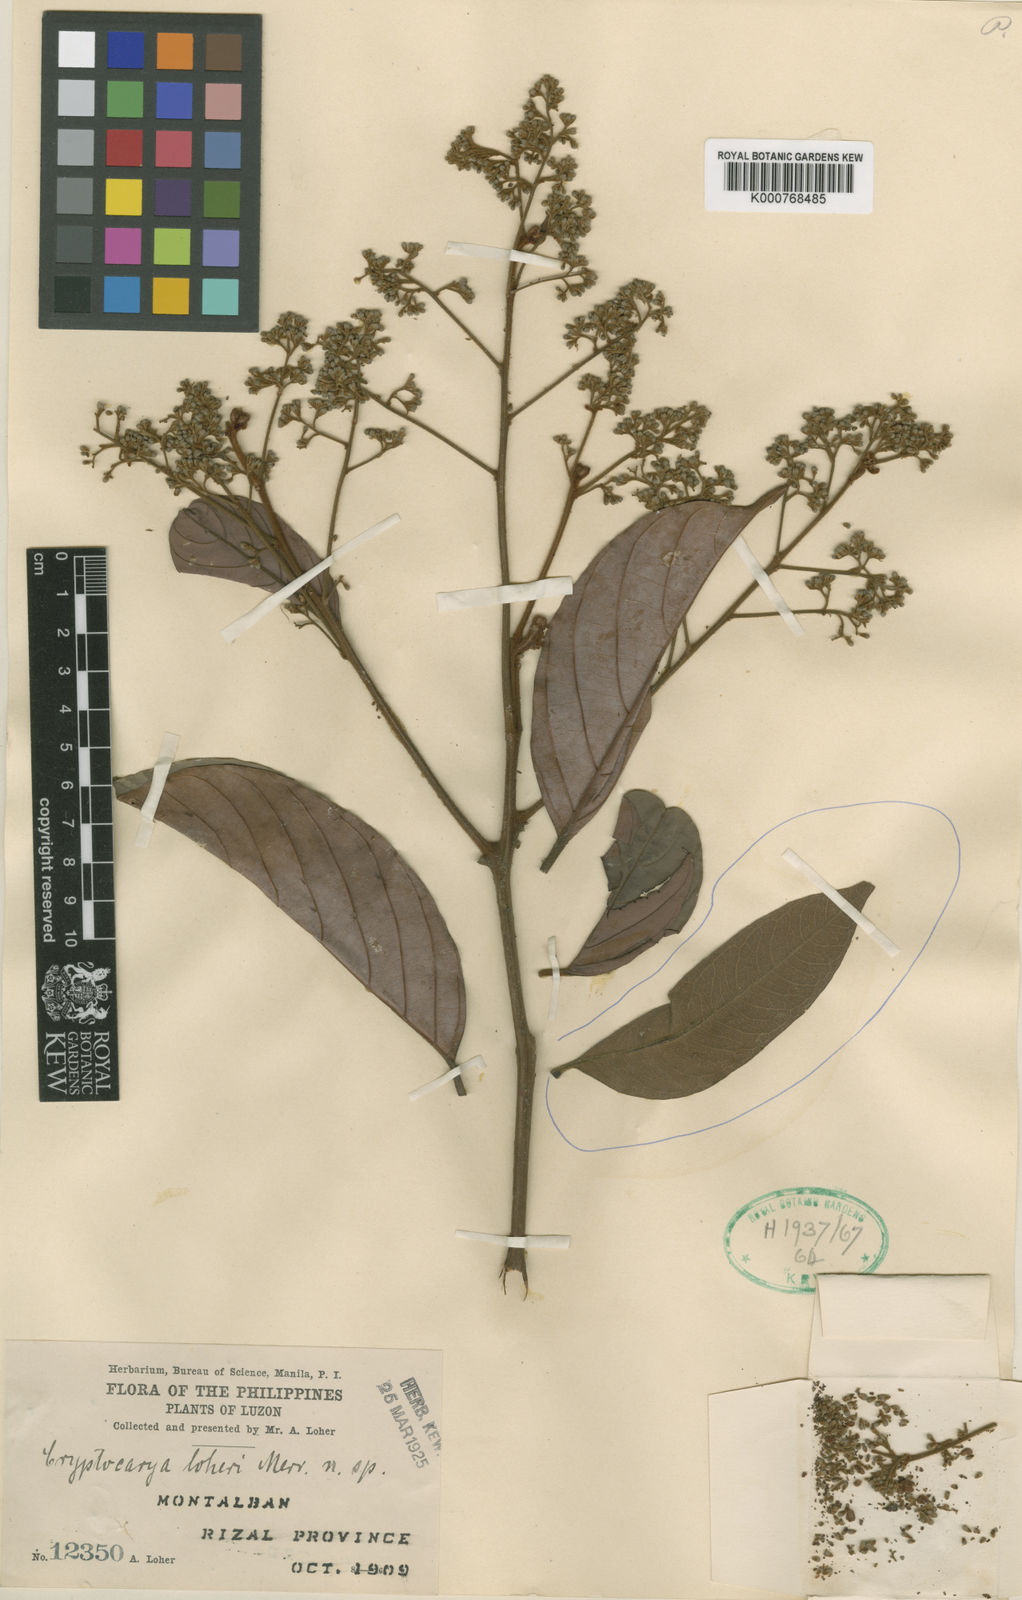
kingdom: Plantae
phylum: Tracheophyta
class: Magnoliopsida
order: Laurales
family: Lauraceae
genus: Cryptocarya
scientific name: Cryptocarya loheri
